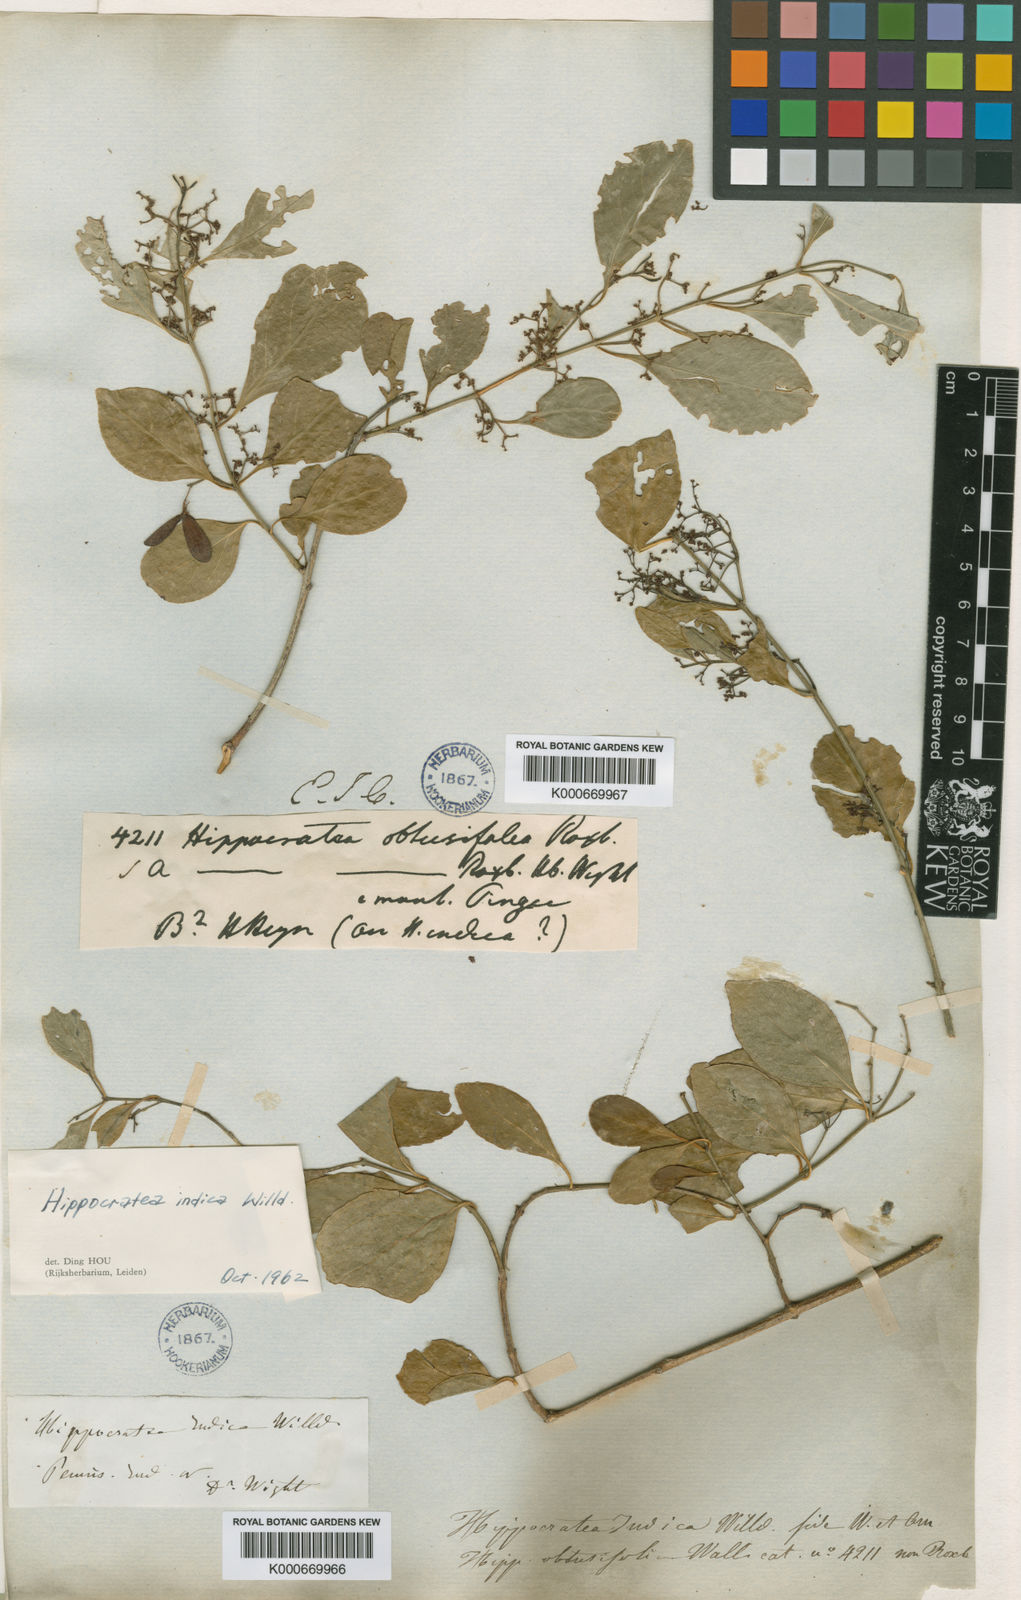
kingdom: Plantae
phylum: Tracheophyta
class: Magnoliopsida
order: Celastrales
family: Celastraceae
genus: Reissantia
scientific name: Reissantia
